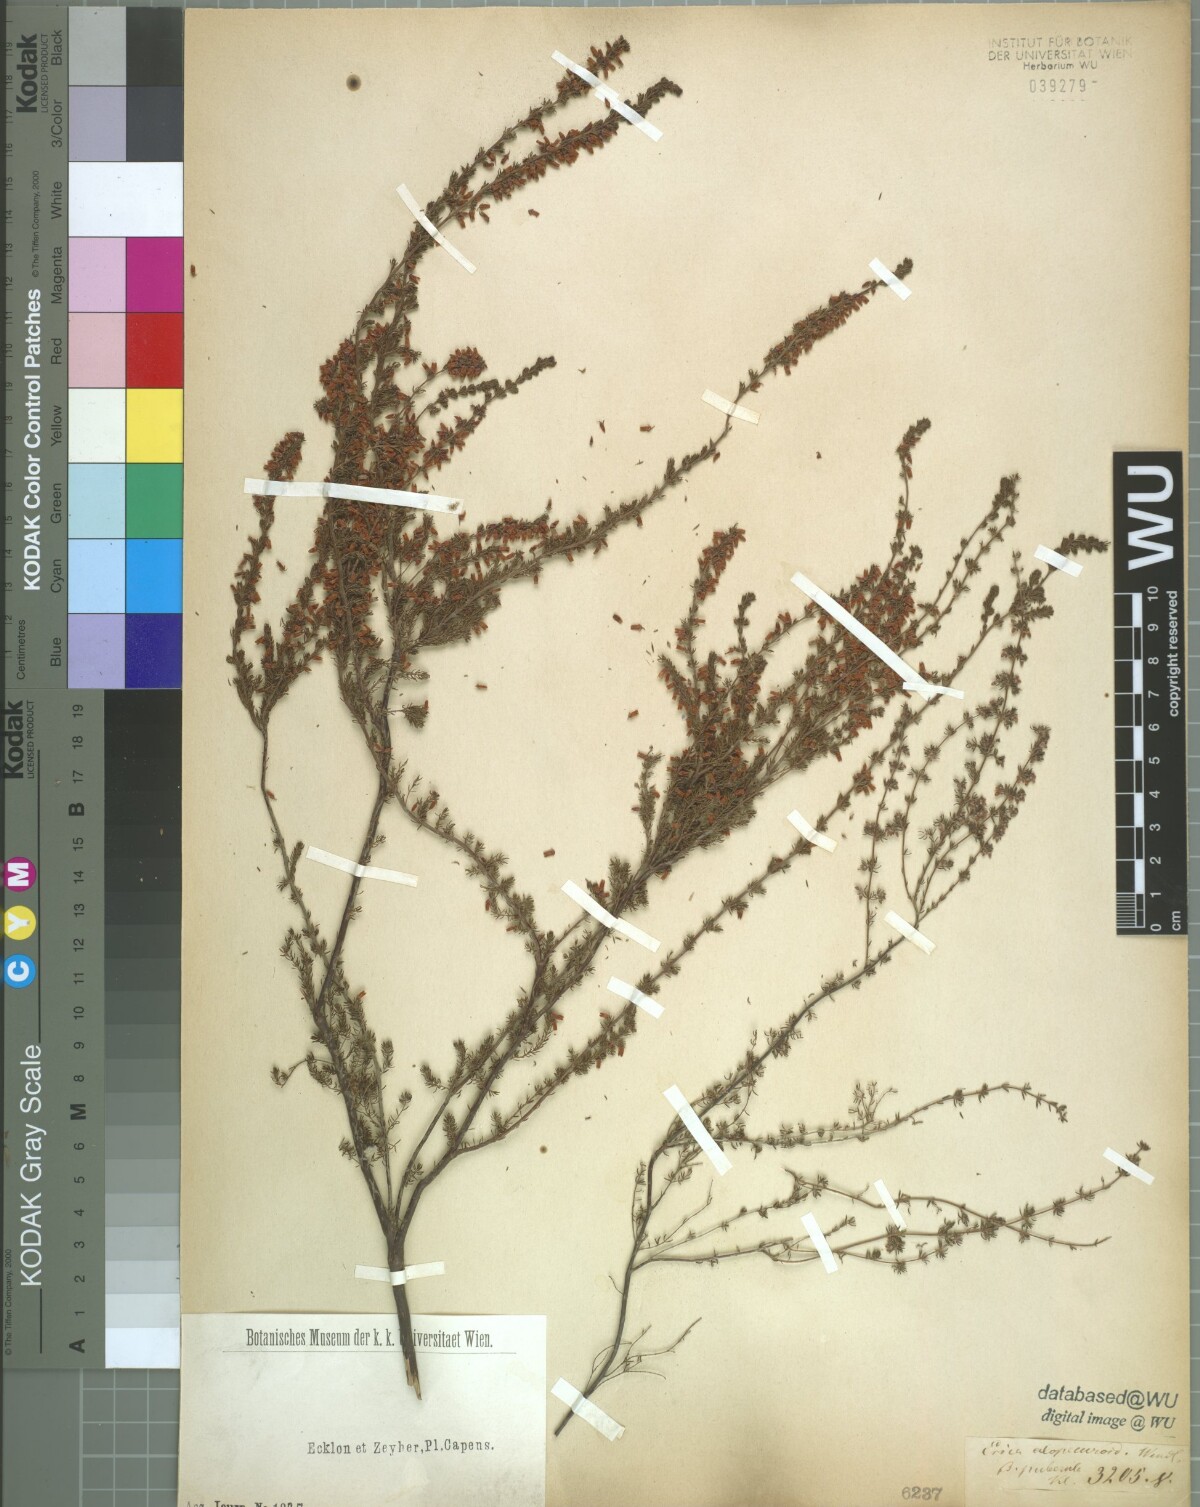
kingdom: Plantae
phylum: Tracheophyta
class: Magnoliopsida
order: Ericales
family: Ericaceae
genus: Erica
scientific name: Erica
